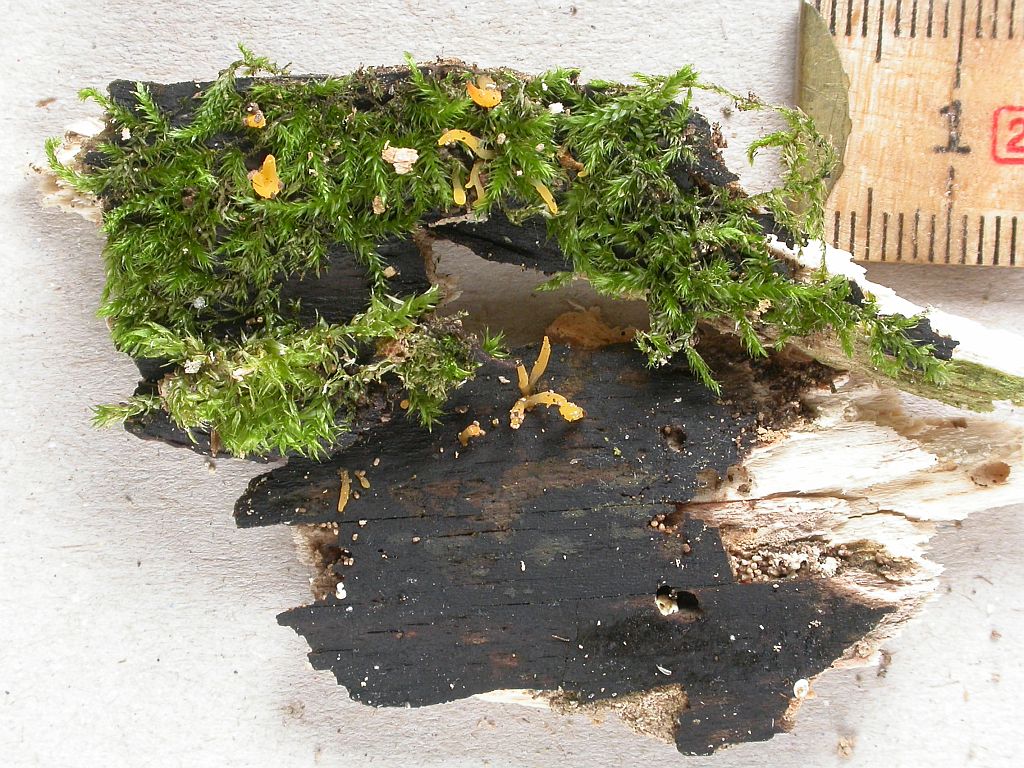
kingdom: Fungi
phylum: Basidiomycota
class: Dacrymycetes
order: Dacrymycetales
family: Dacrymycetaceae
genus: Calocera
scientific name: Calocera cornea
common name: liden guldgaffel
